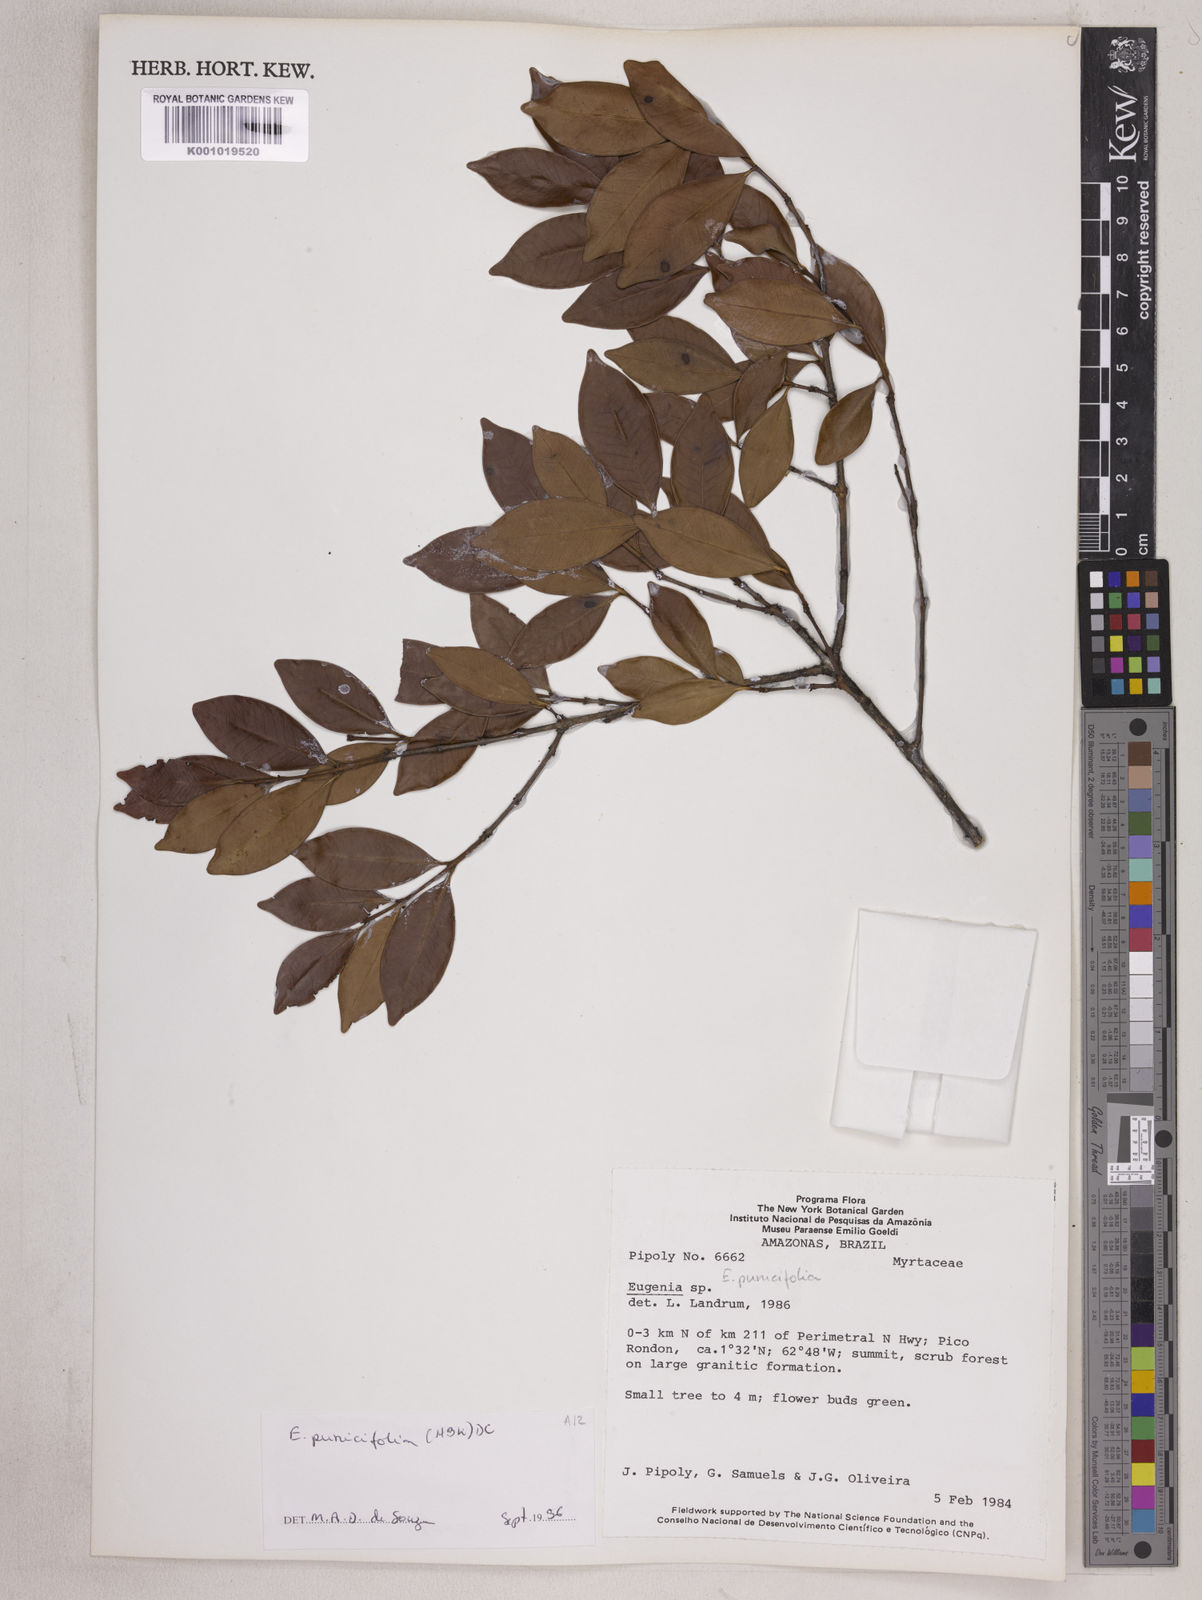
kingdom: Plantae
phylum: Tracheophyta
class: Magnoliopsida
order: Myrtales
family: Myrtaceae
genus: Eugenia
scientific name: Eugenia punicifolia
